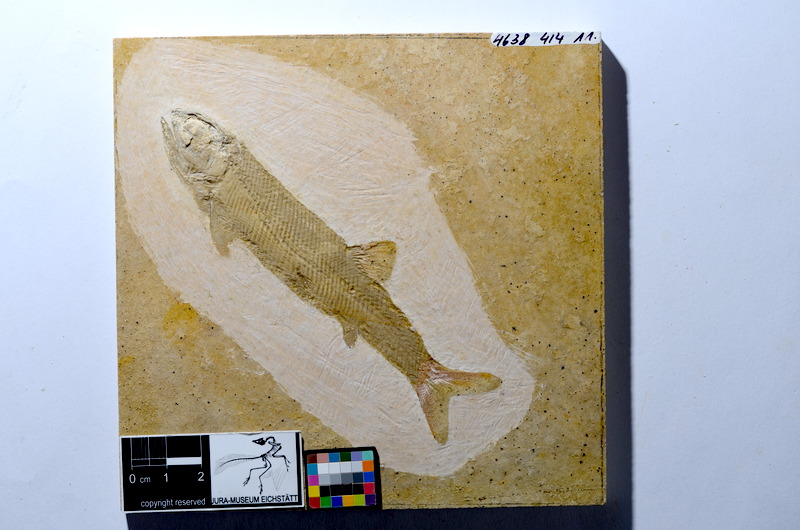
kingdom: Animalia
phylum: Chordata
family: Ophiopsiellidae
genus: Furo
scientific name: Furo angustus
